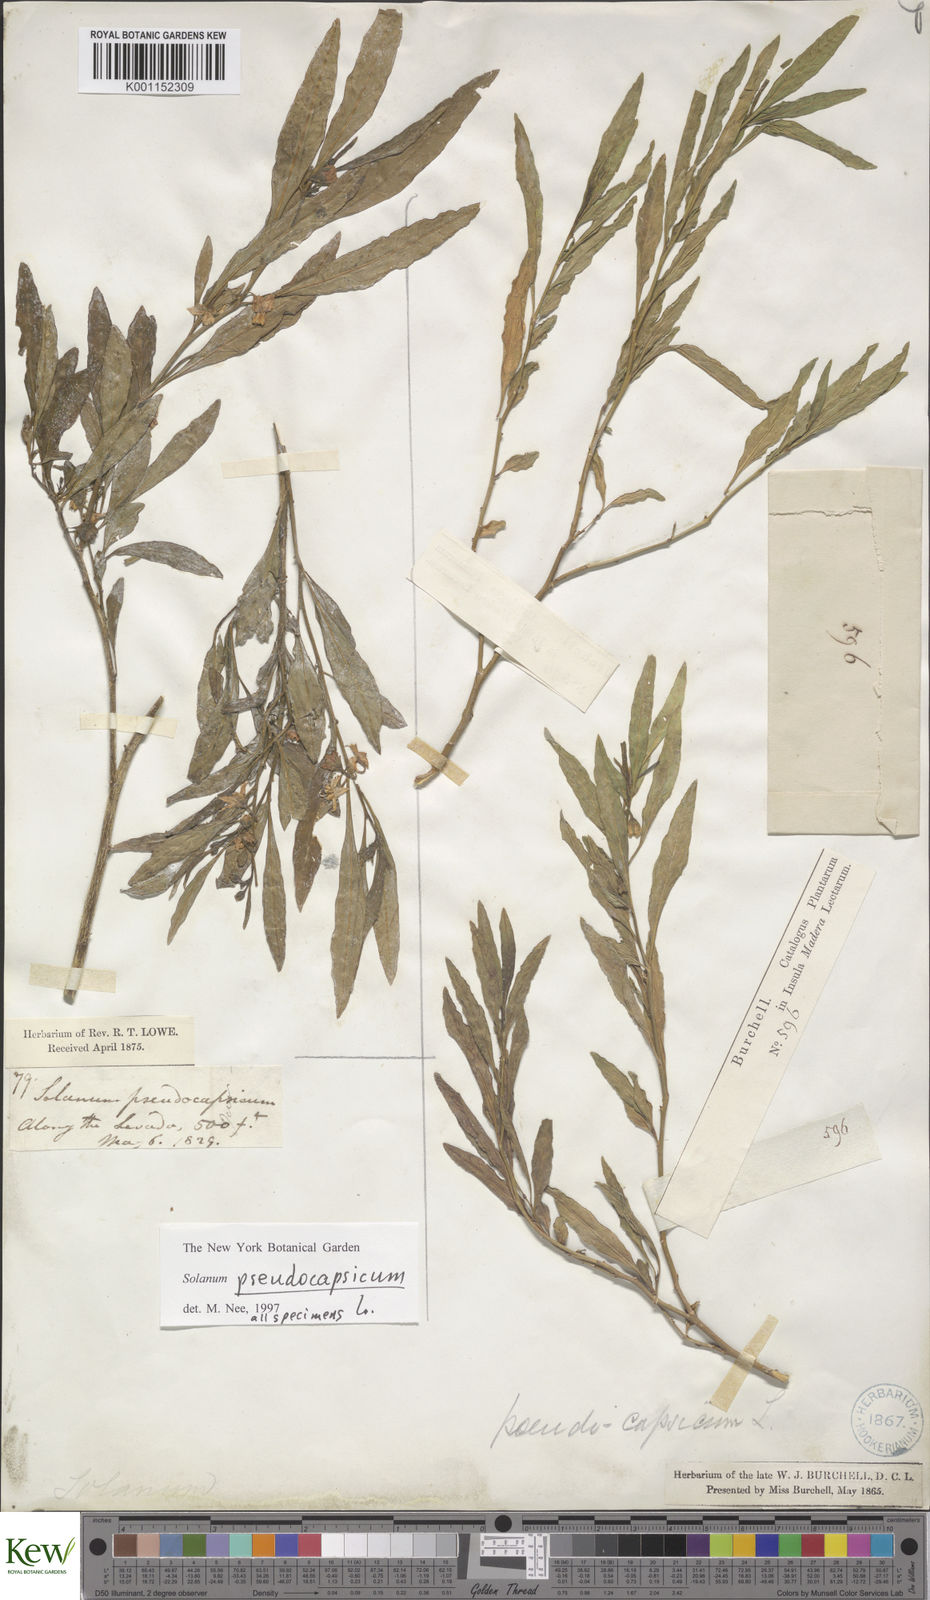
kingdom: Plantae
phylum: Tracheophyta
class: Magnoliopsida
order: Solanales
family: Solanaceae
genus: Solanum
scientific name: Solanum pseudocapsicum
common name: Jerusalem cherry
